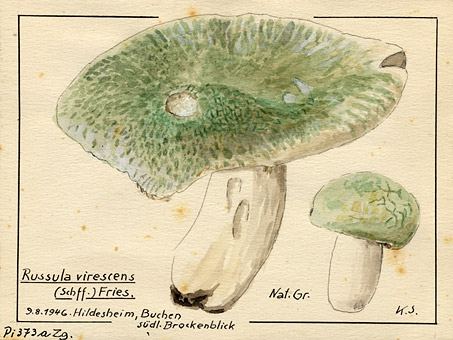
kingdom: Fungi
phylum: Basidiomycota
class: Agaricomycetes
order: Russulales
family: Russulaceae
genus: Russula
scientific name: Russula virescens
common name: Greencracked brittlegill
